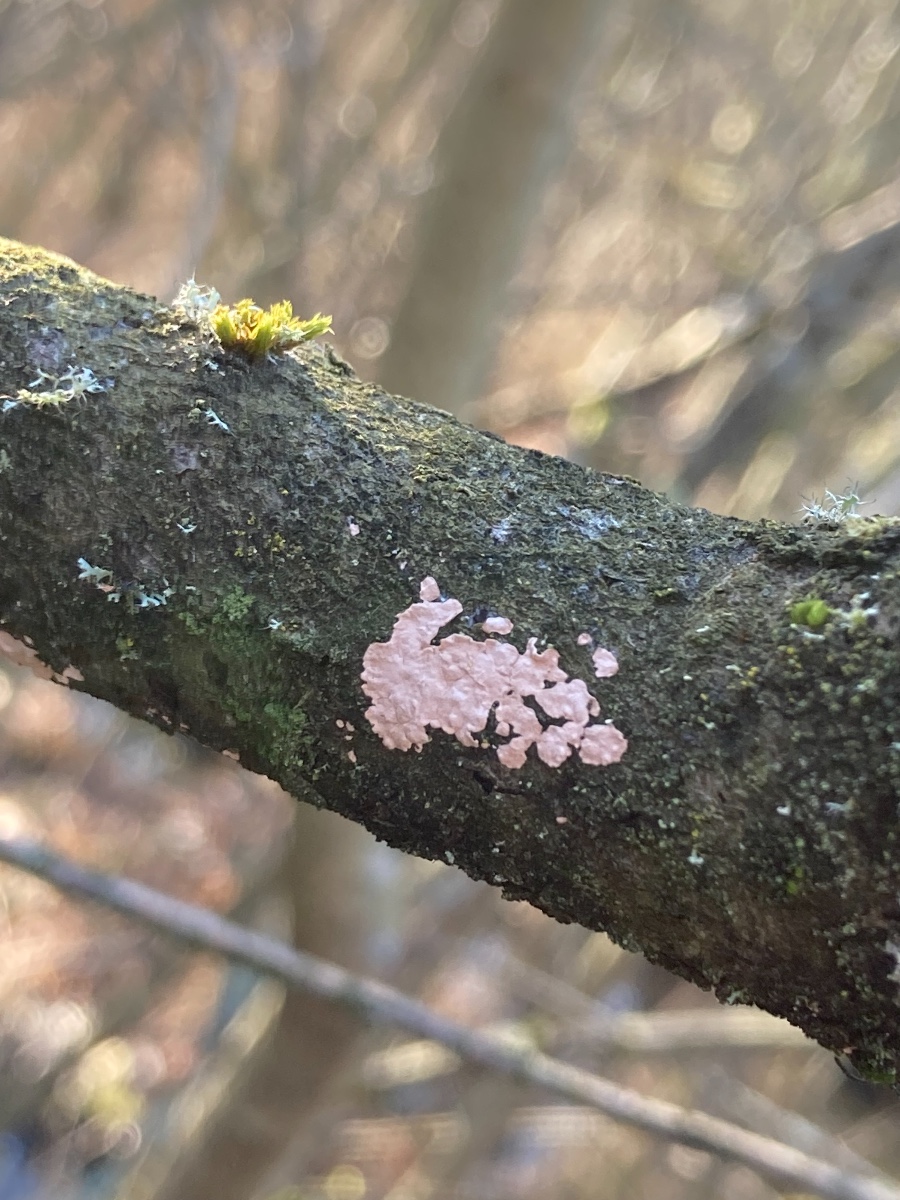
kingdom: Fungi
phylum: Basidiomycota
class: Agaricomycetes
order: Corticiales
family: Corticiaceae
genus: Corticium
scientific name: Corticium roseum
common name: rosa barkskind
